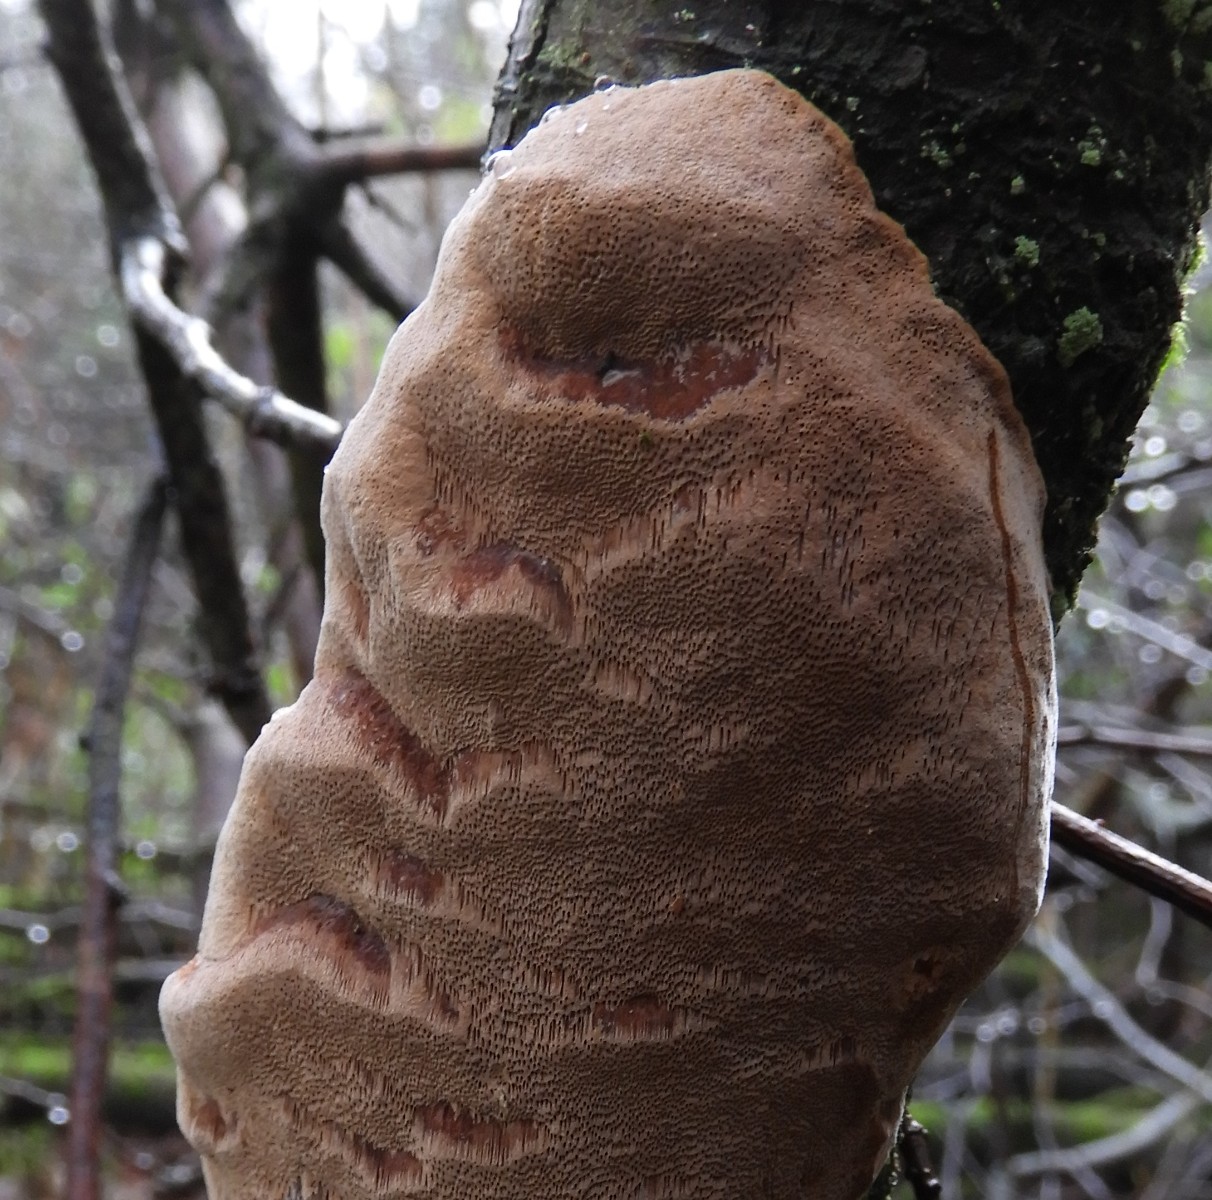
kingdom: Fungi
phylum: Basidiomycota
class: Agaricomycetes
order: Hymenochaetales
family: Hymenochaetaceae
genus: Phellinus
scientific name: Phellinus pomaceus
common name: blomme-ildporesvamp
